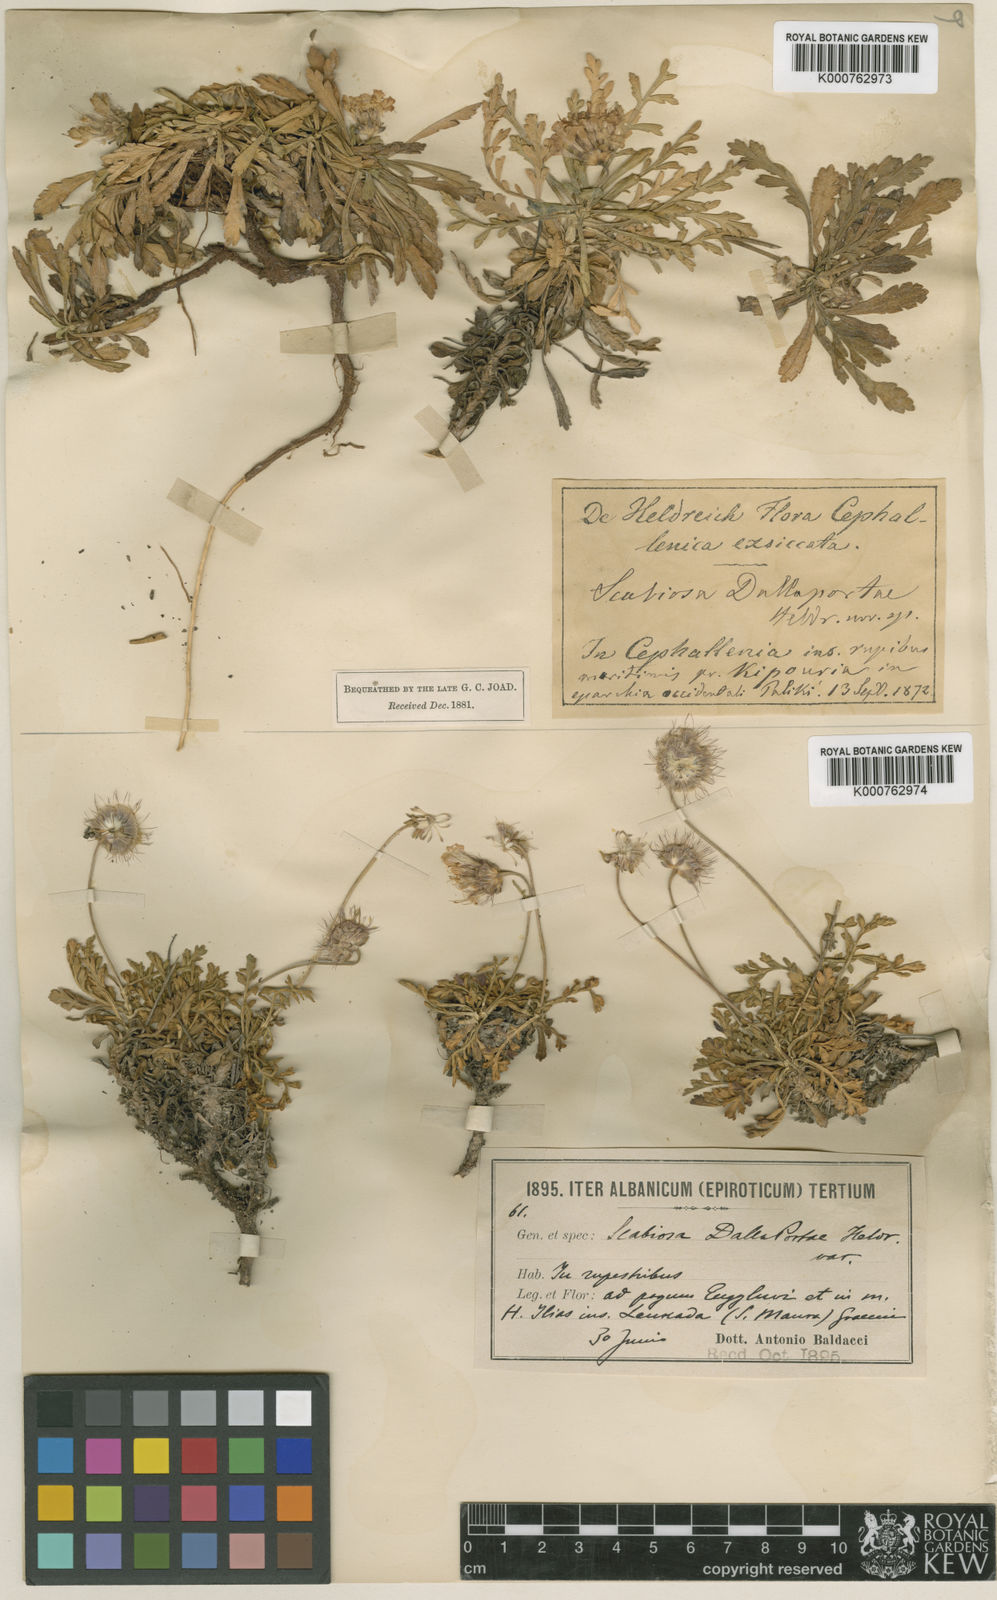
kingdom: Plantae
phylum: Tracheophyta
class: Magnoliopsida
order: Dipsacales
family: Caprifoliaceae
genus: Lomelosia
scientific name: Lomelosia crenata
